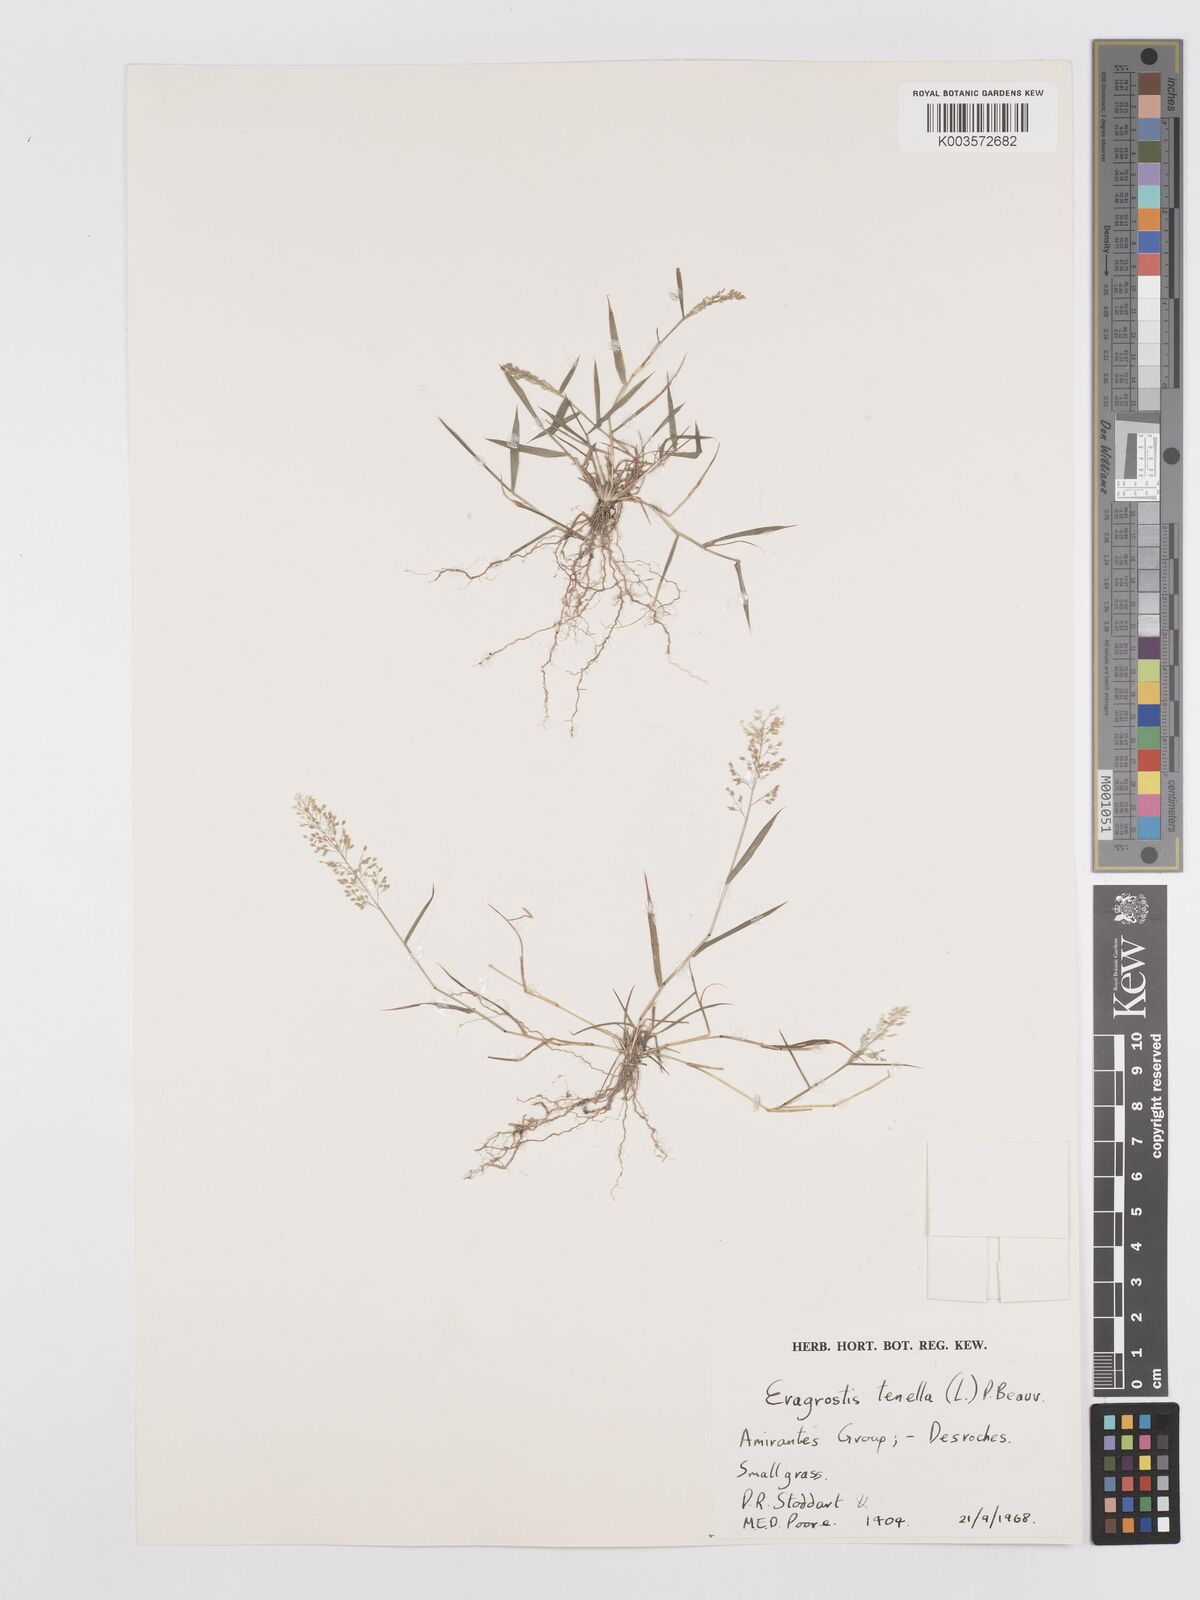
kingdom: Plantae
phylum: Tracheophyta
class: Liliopsida
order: Poales
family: Poaceae
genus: Eragrostis
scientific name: Eragrostis tenella
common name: Japanese lovegrass
